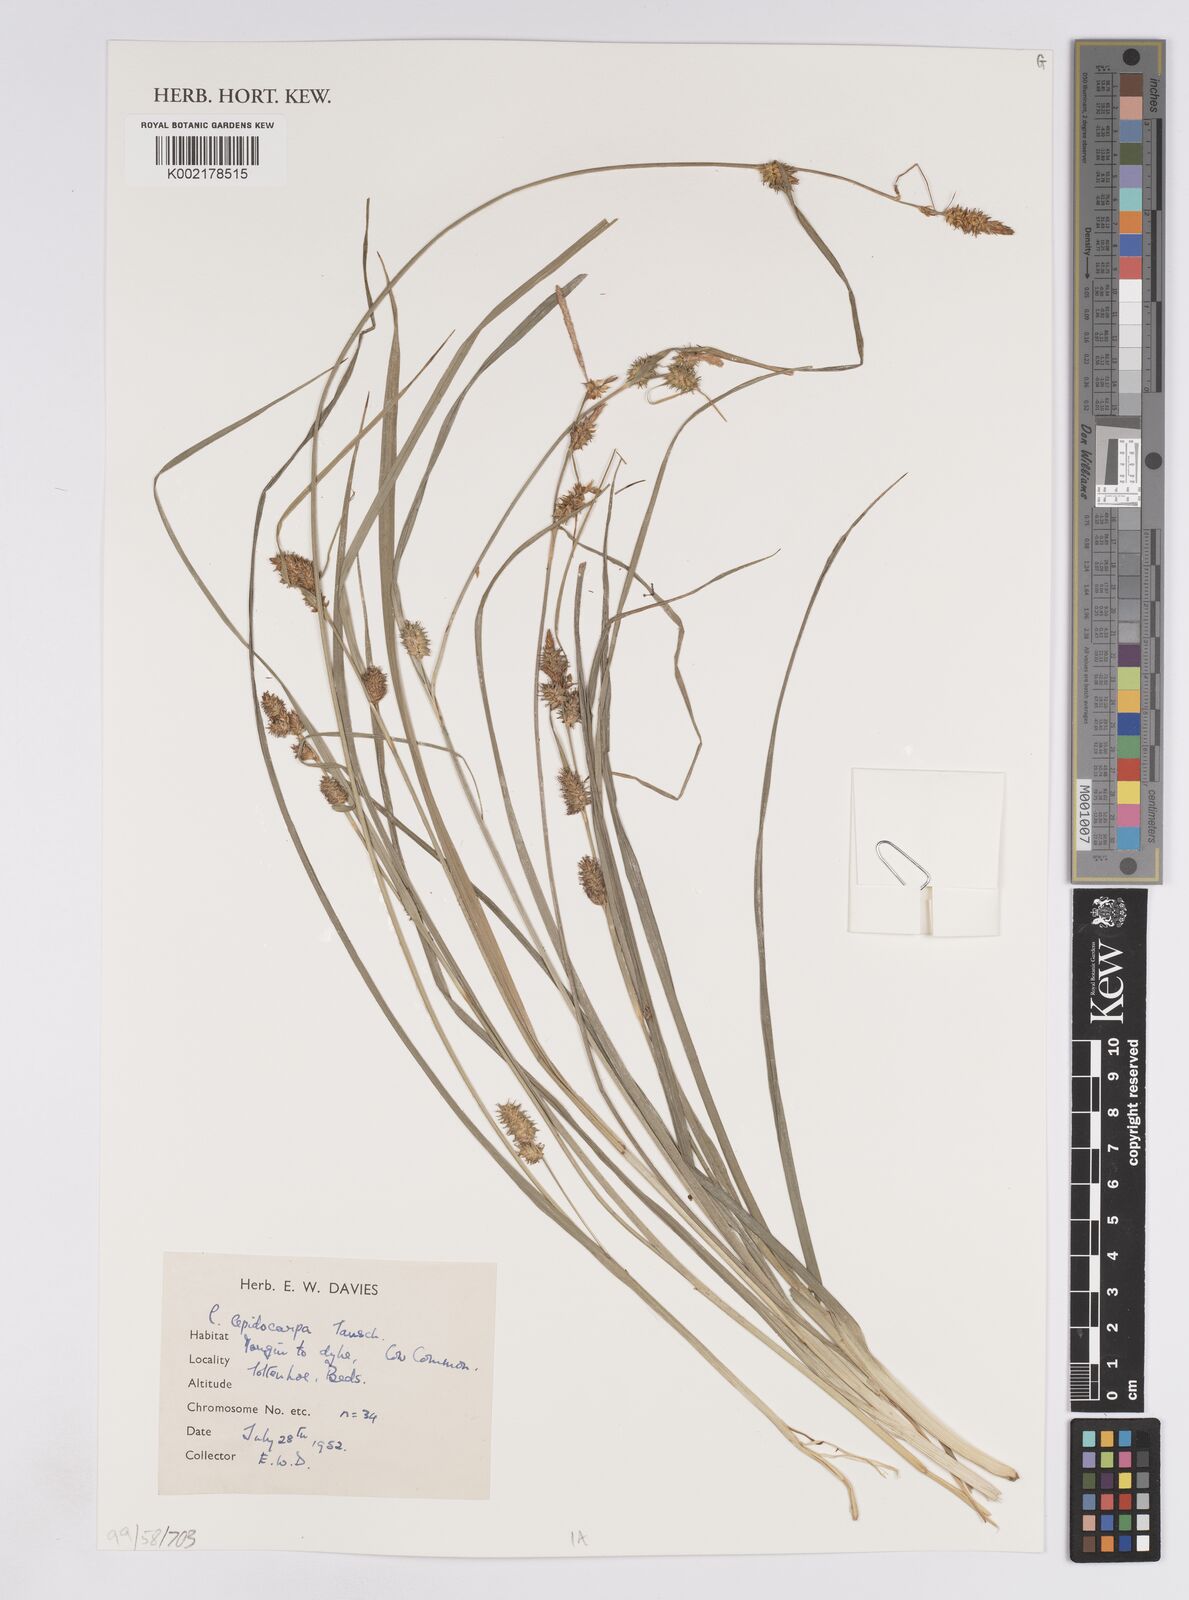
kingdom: Plantae
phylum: Tracheophyta
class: Liliopsida
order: Poales
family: Cyperaceae
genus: Carex
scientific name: Carex lepidocarpa
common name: Long-stalked yellow-sedge
